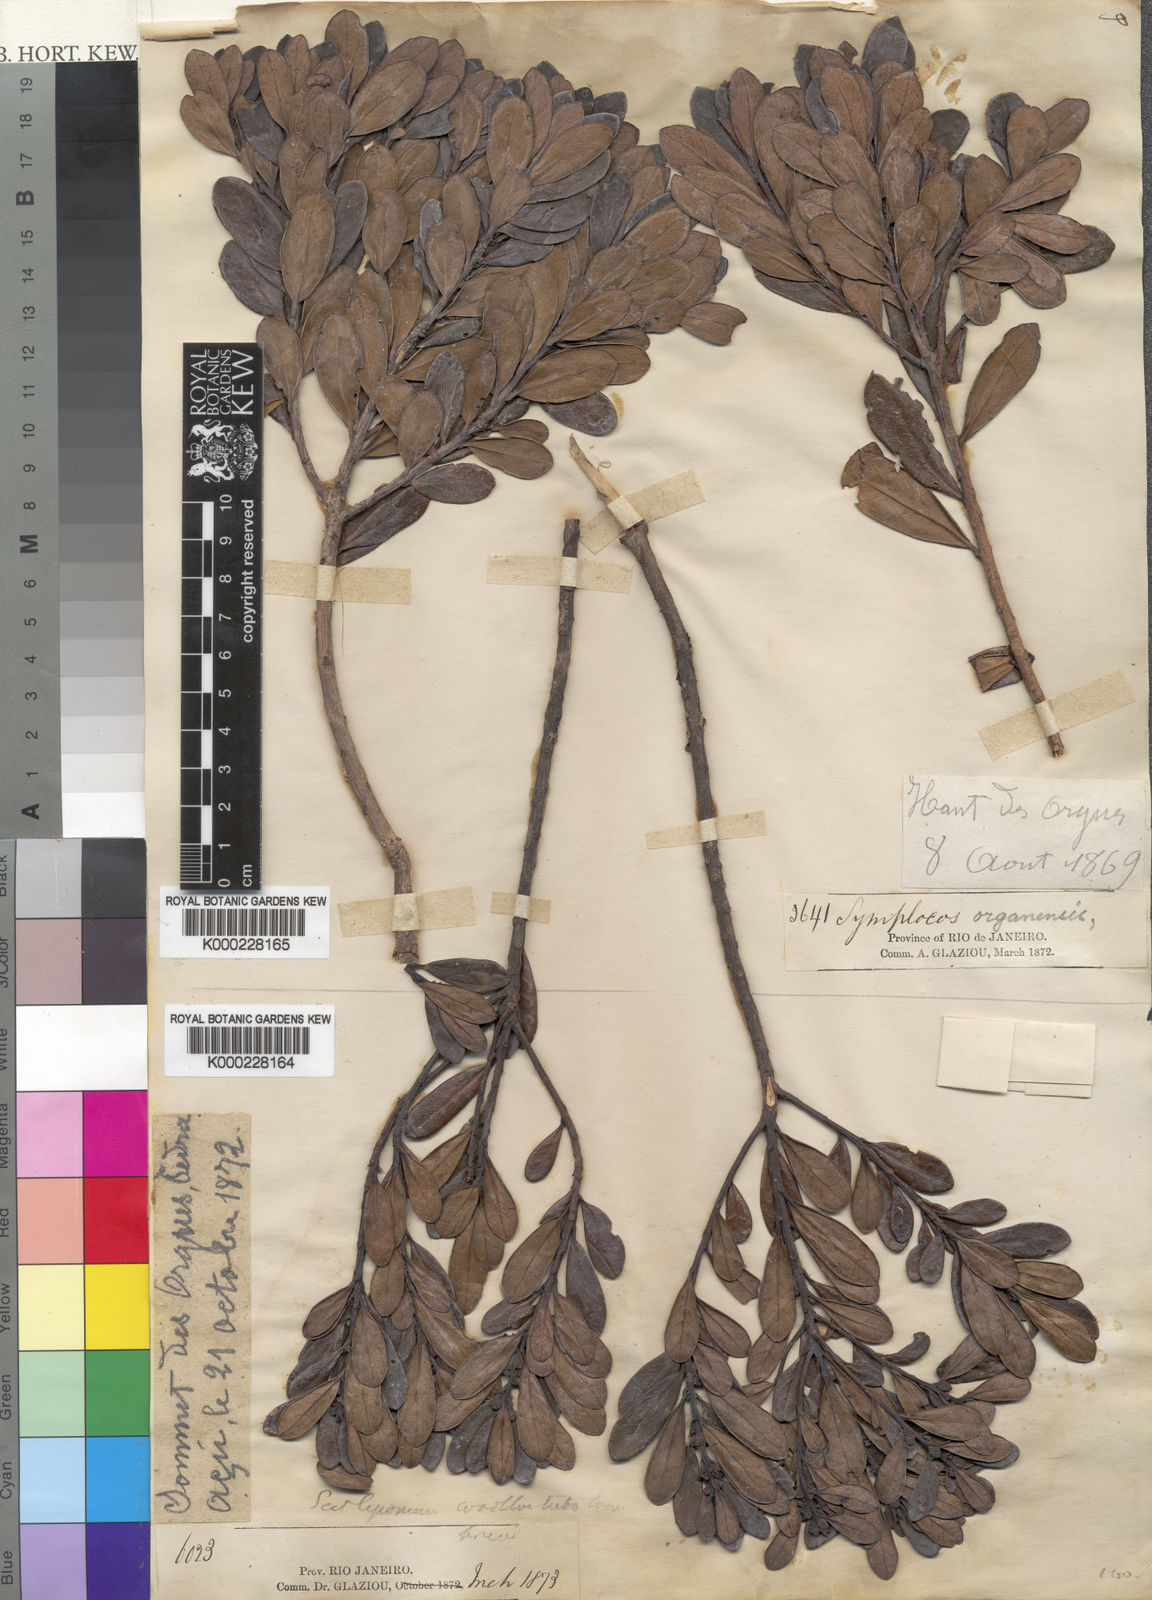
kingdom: Plantae
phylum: Tracheophyta
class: Magnoliopsida
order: Ericales
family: Symplocaceae
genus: Symplocos
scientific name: Symplocos organensis
